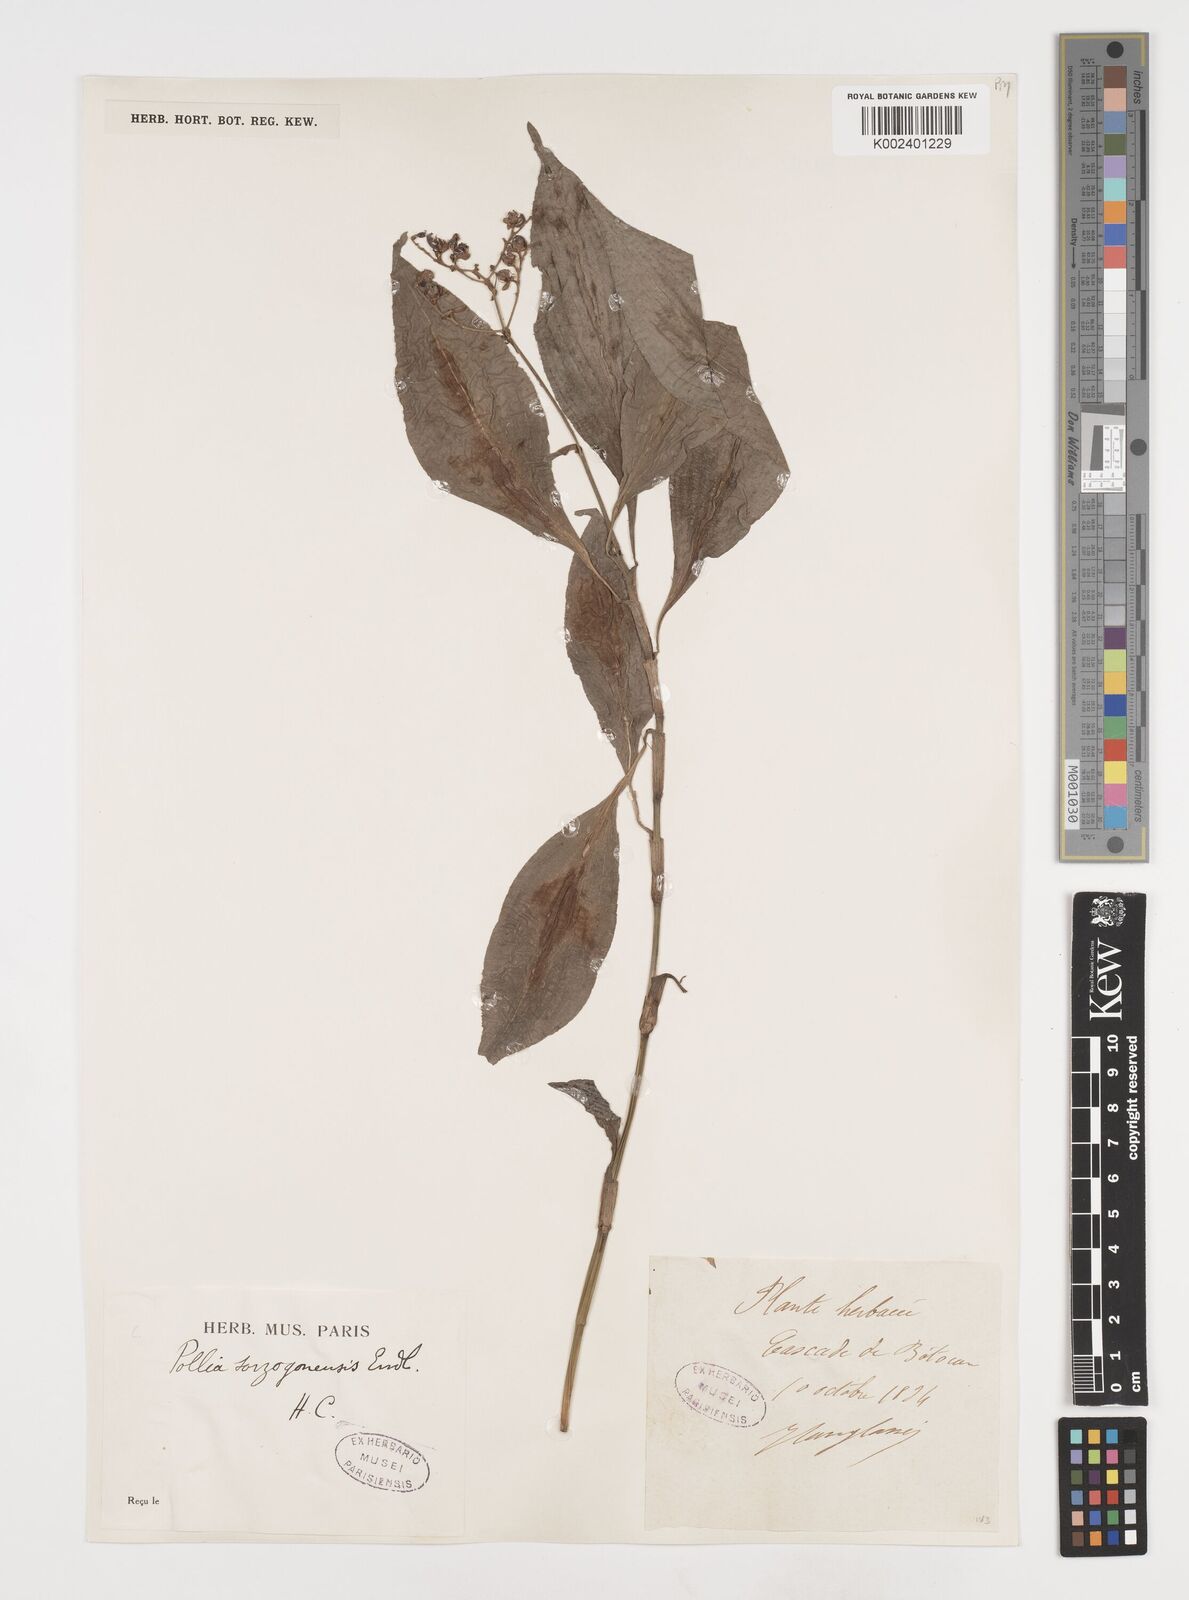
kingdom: Plantae
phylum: Tracheophyta
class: Liliopsida
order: Commelinales
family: Commelinaceae
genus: Pollia
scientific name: Pollia secundiflora
